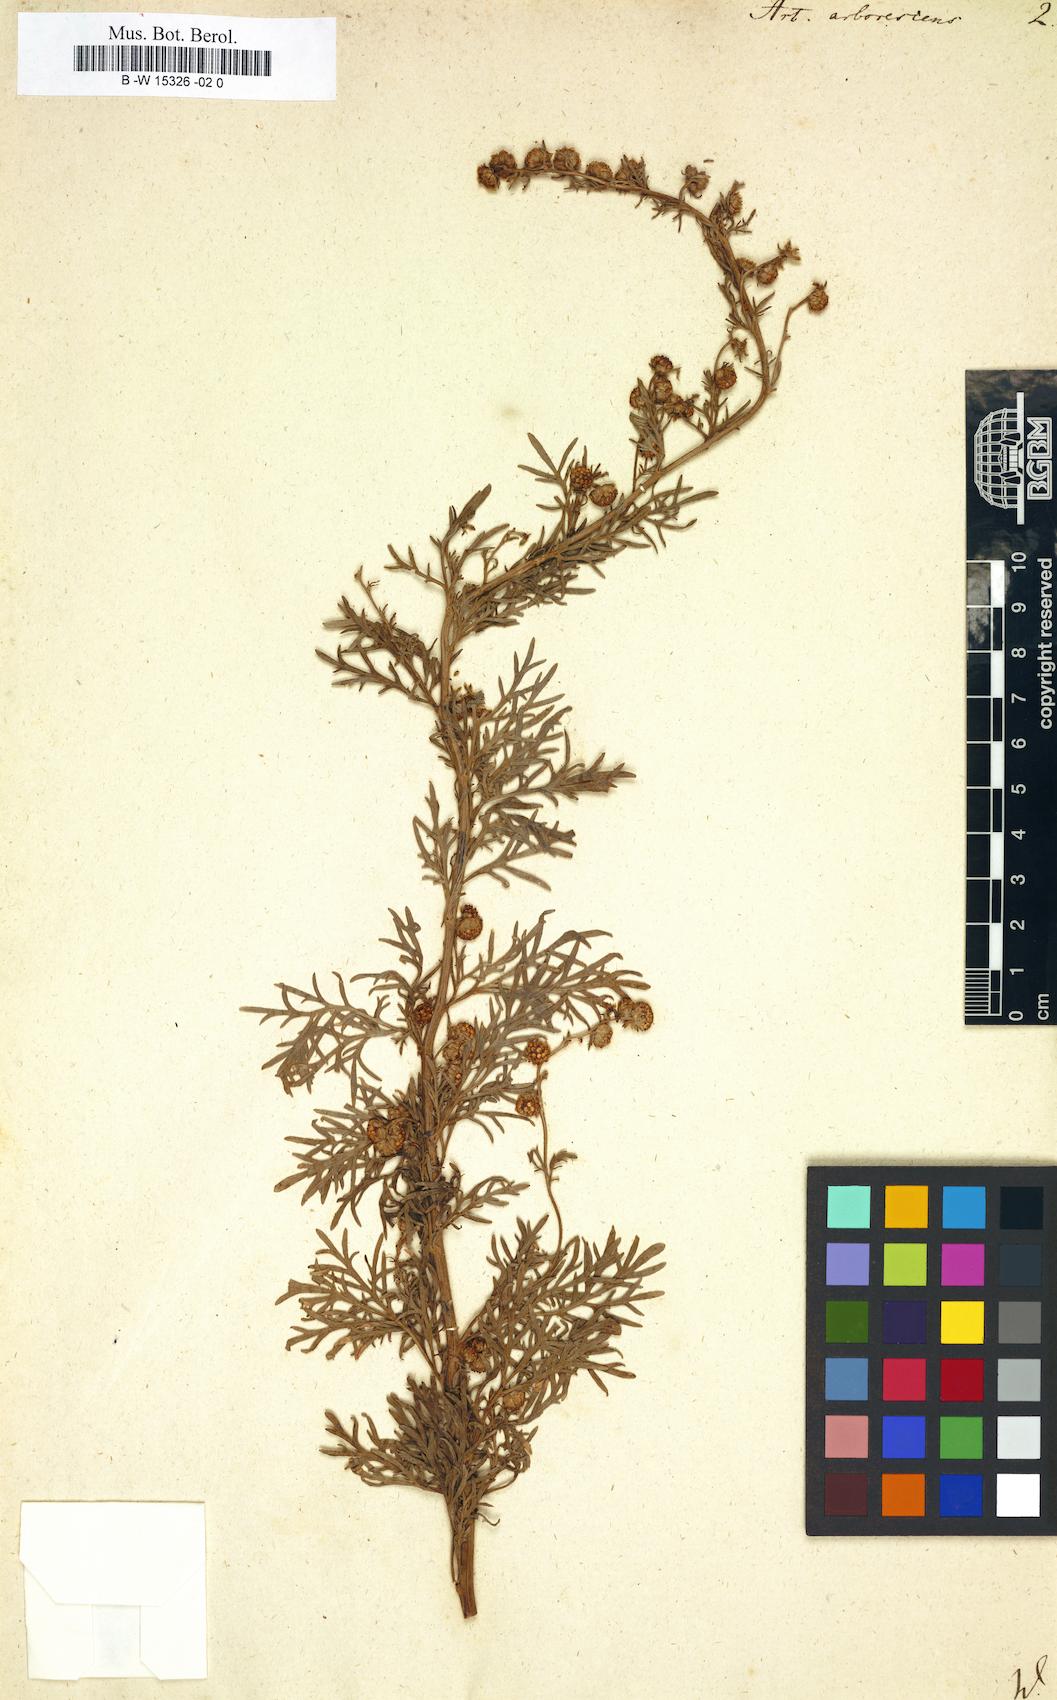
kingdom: Plantae
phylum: Tracheophyta
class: Magnoliopsida
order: Asterales
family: Asteraceae
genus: Artemisia
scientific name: Artemisia arborescens
